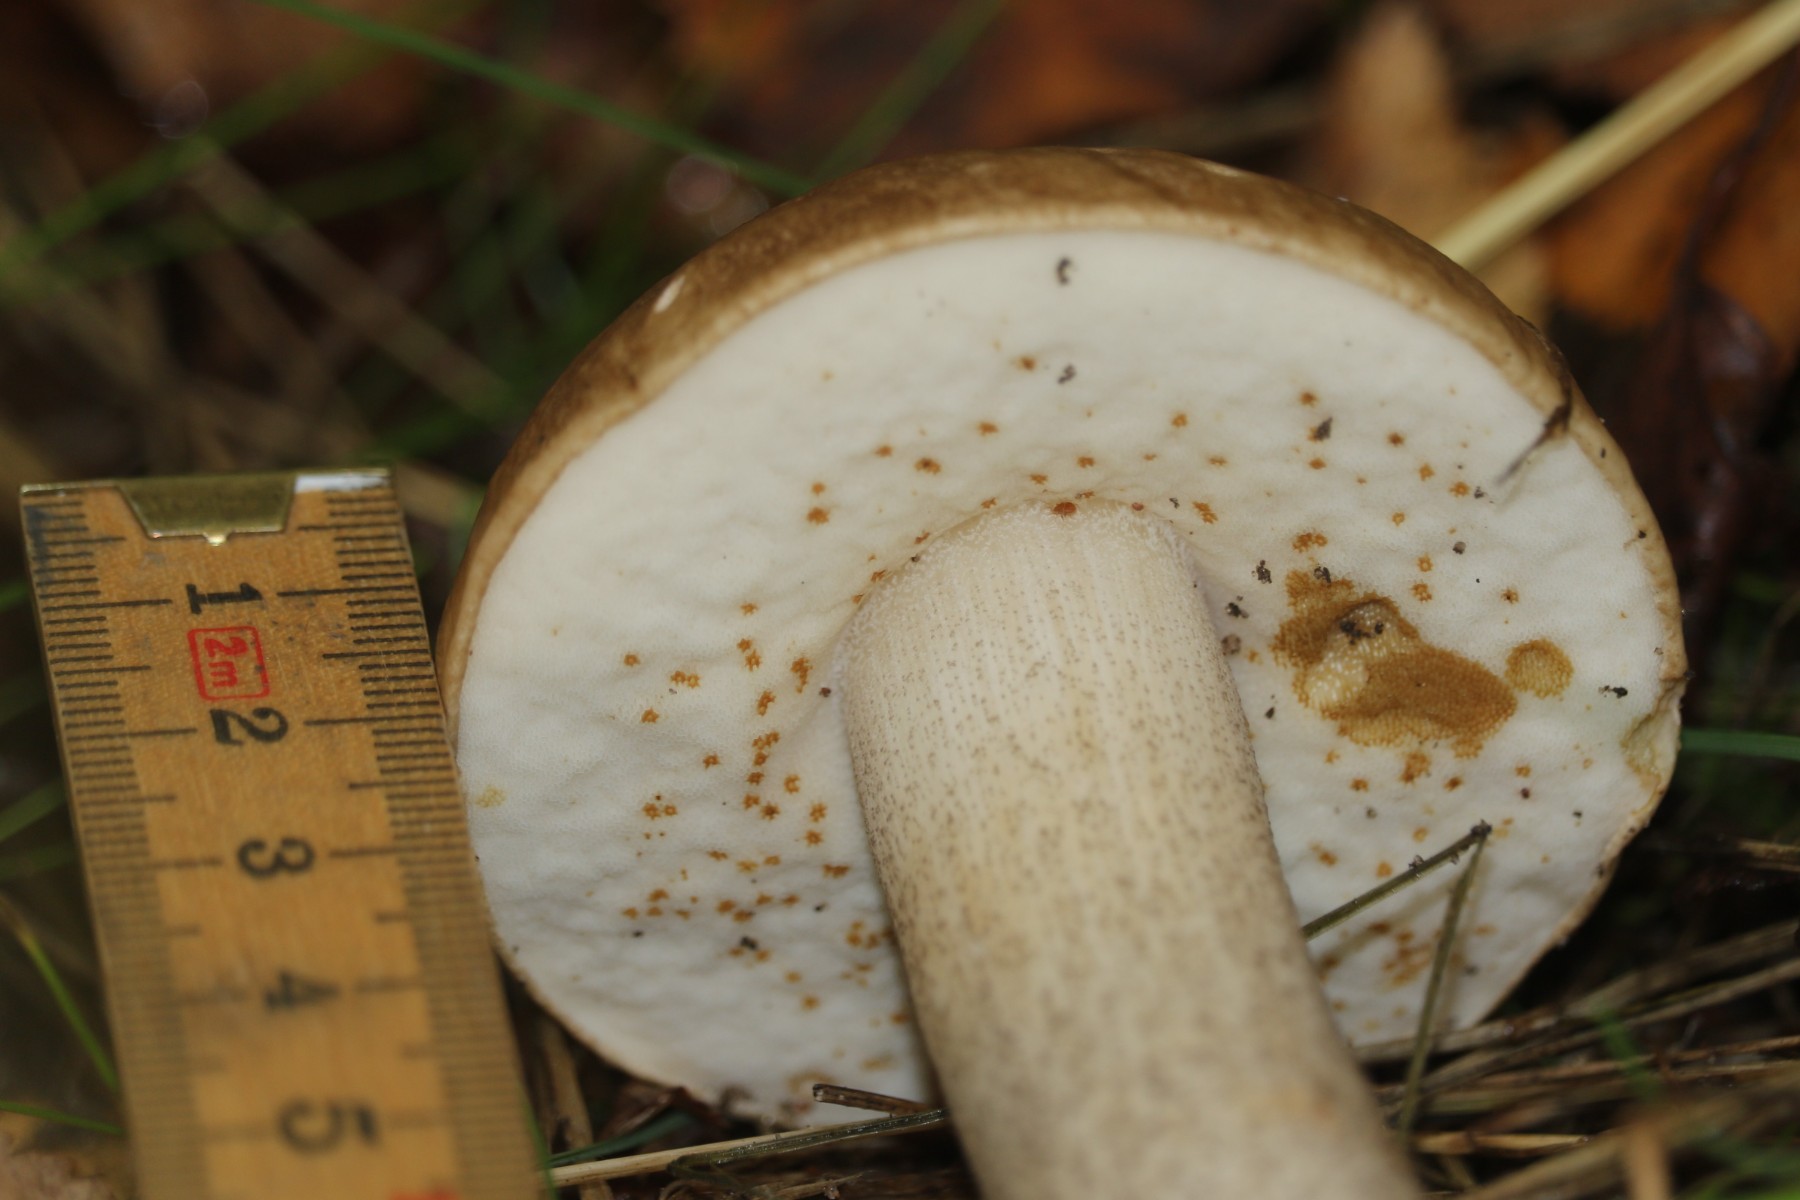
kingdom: Fungi
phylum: Basidiomycota
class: Agaricomycetes
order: Boletales
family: Boletaceae
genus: Leccinum
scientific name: Leccinum scabrum
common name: brun skælrørhat
